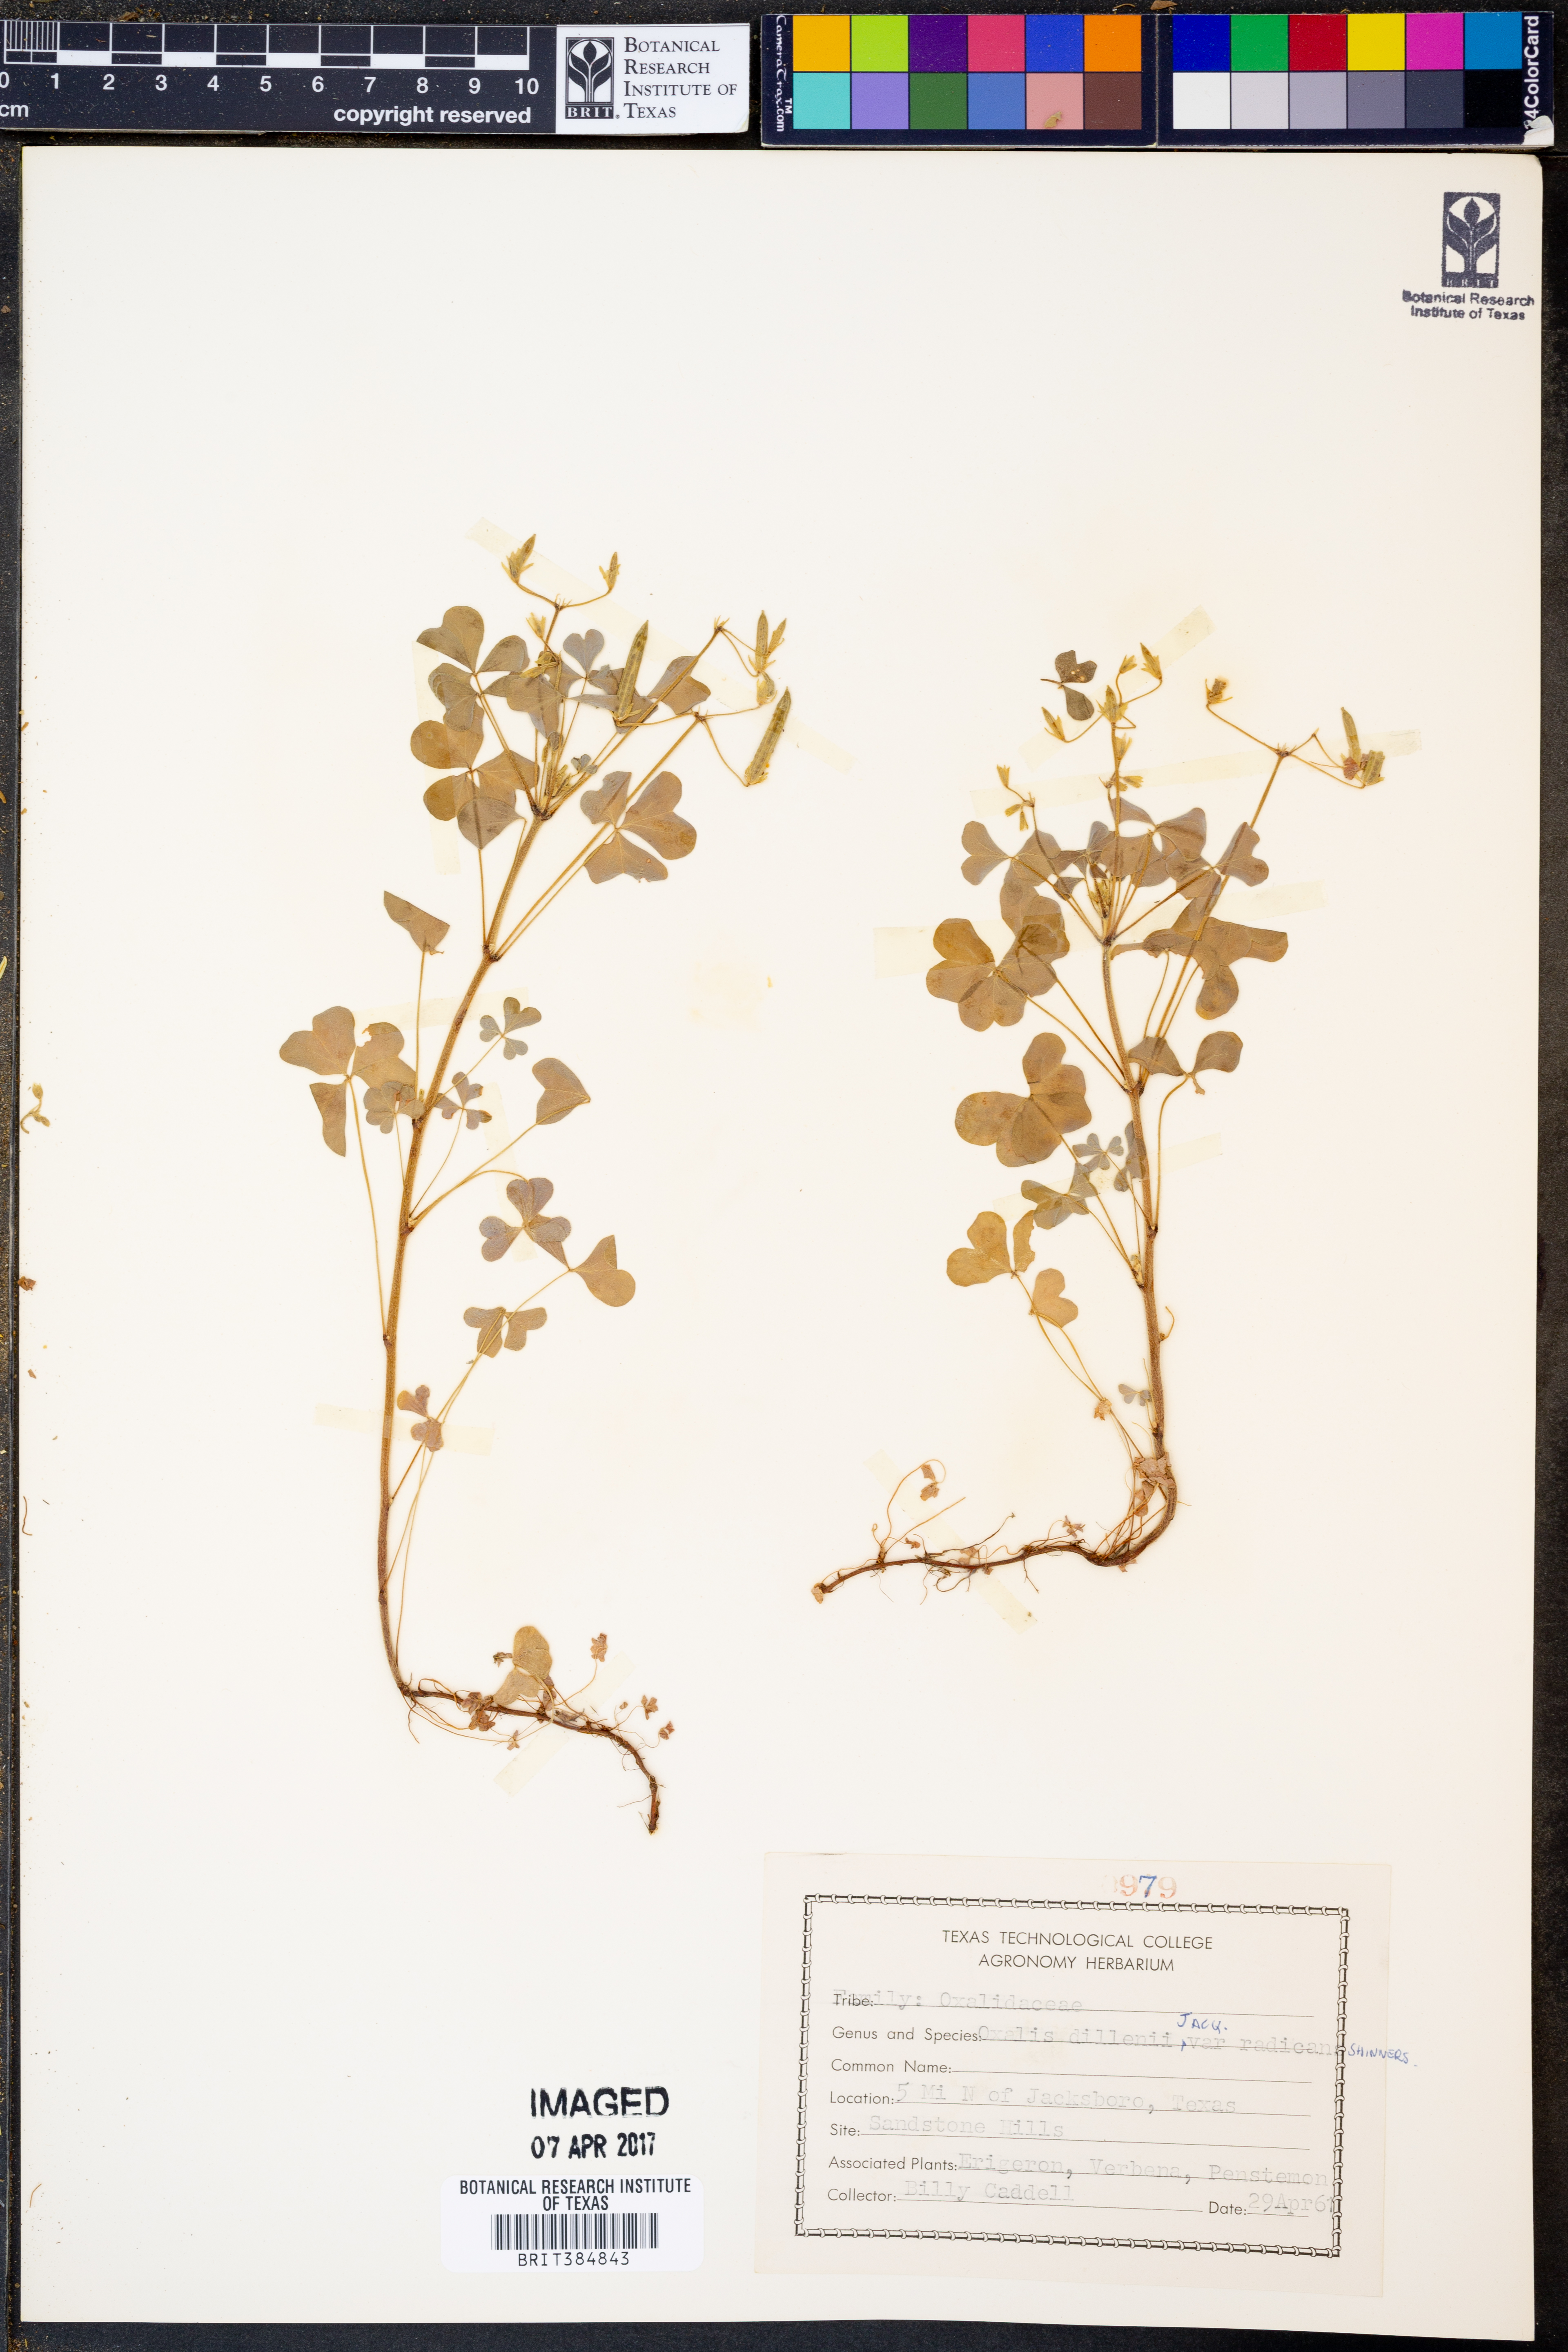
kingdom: Plantae
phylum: Tracheophyta
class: Magnoliopsida
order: Oxalidales
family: Oxalidaceae
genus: Oxalis
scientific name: Oxalis dillenii
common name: Sussex yellow-sorrel
